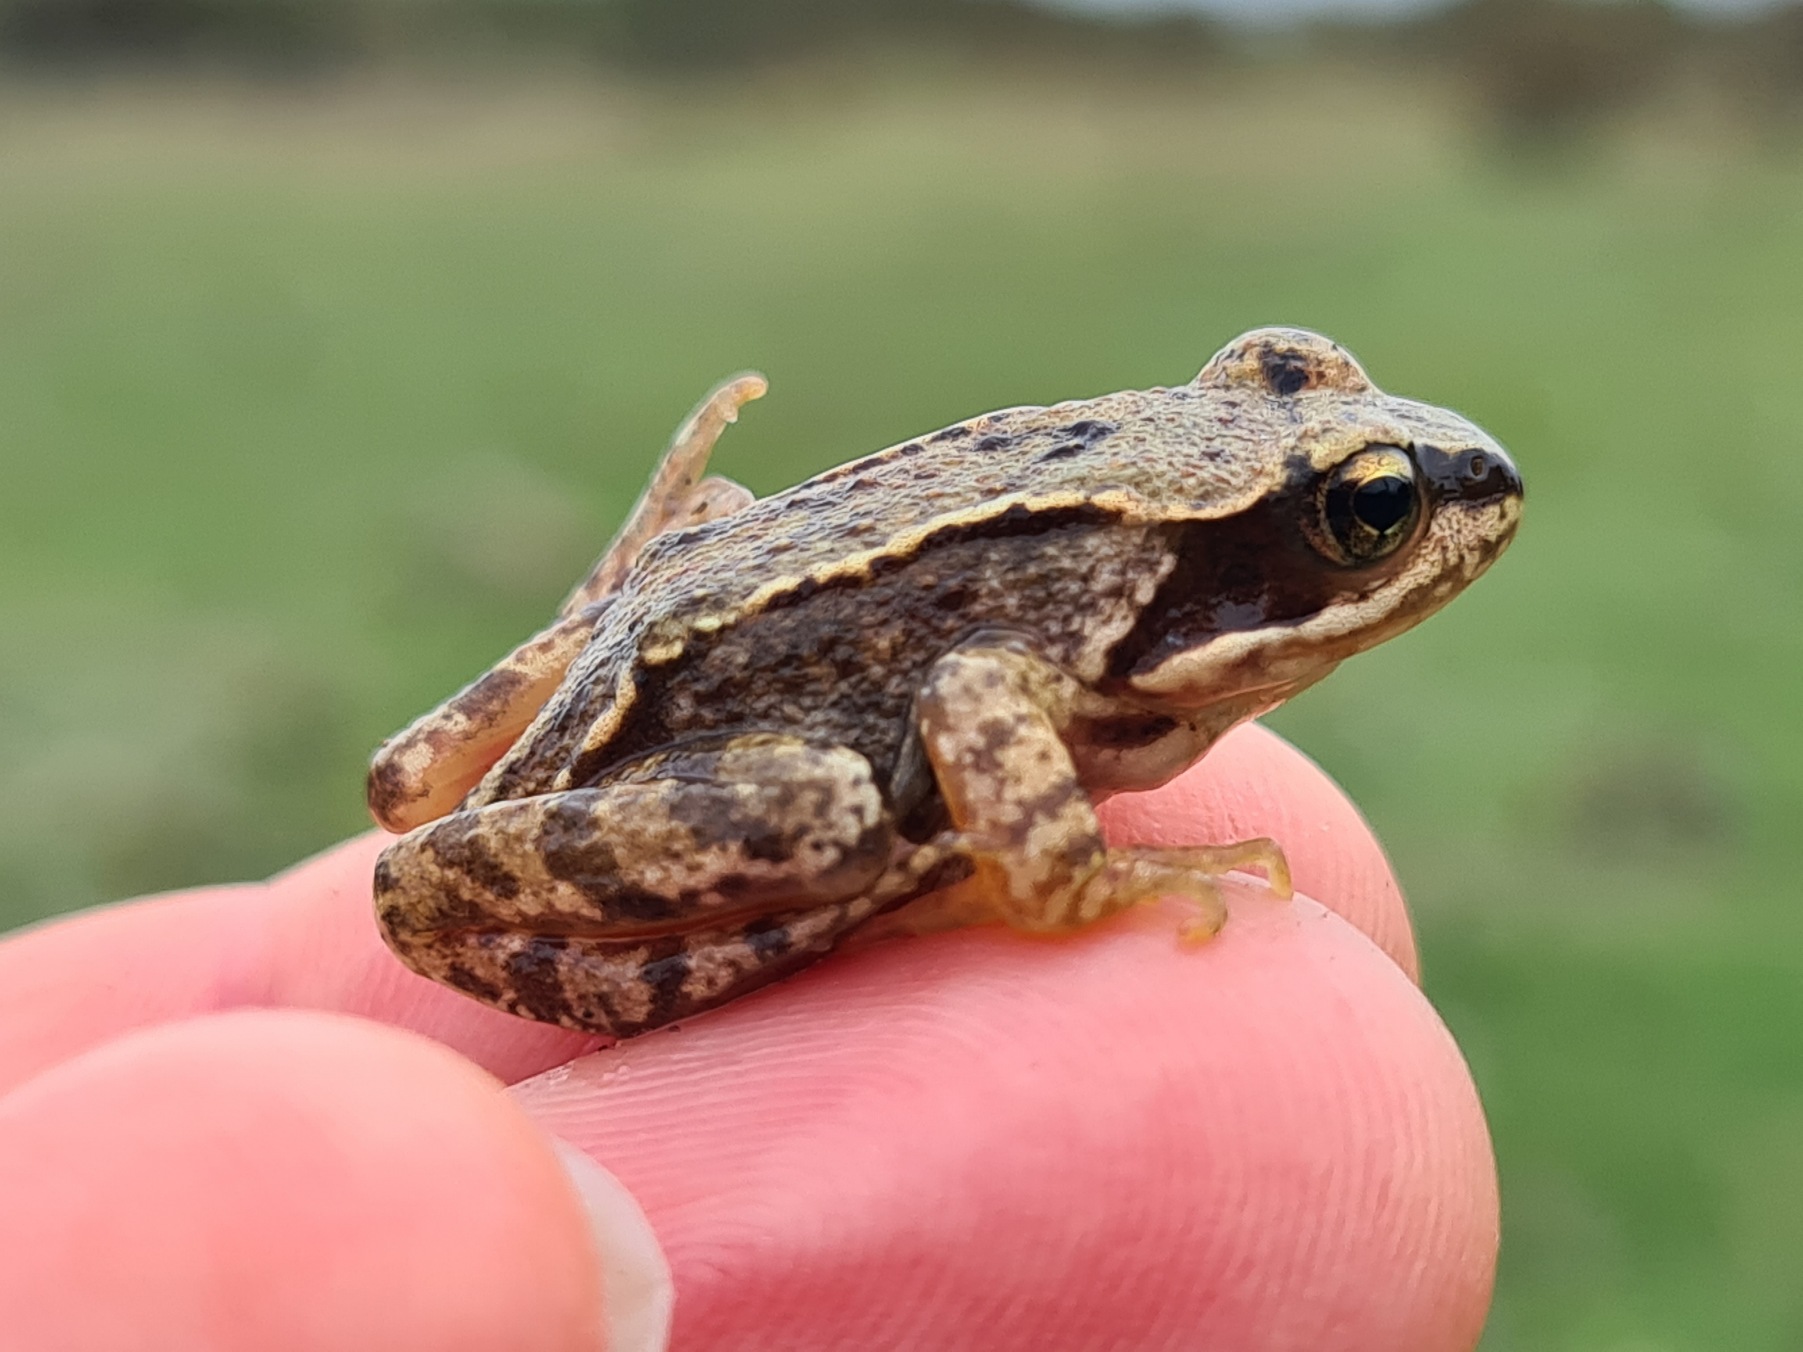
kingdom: Animalia
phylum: Chordata
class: Amphibia
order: Anura
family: Ranidae
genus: Rana
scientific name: Rana temporaria
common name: Butsnudet frø
